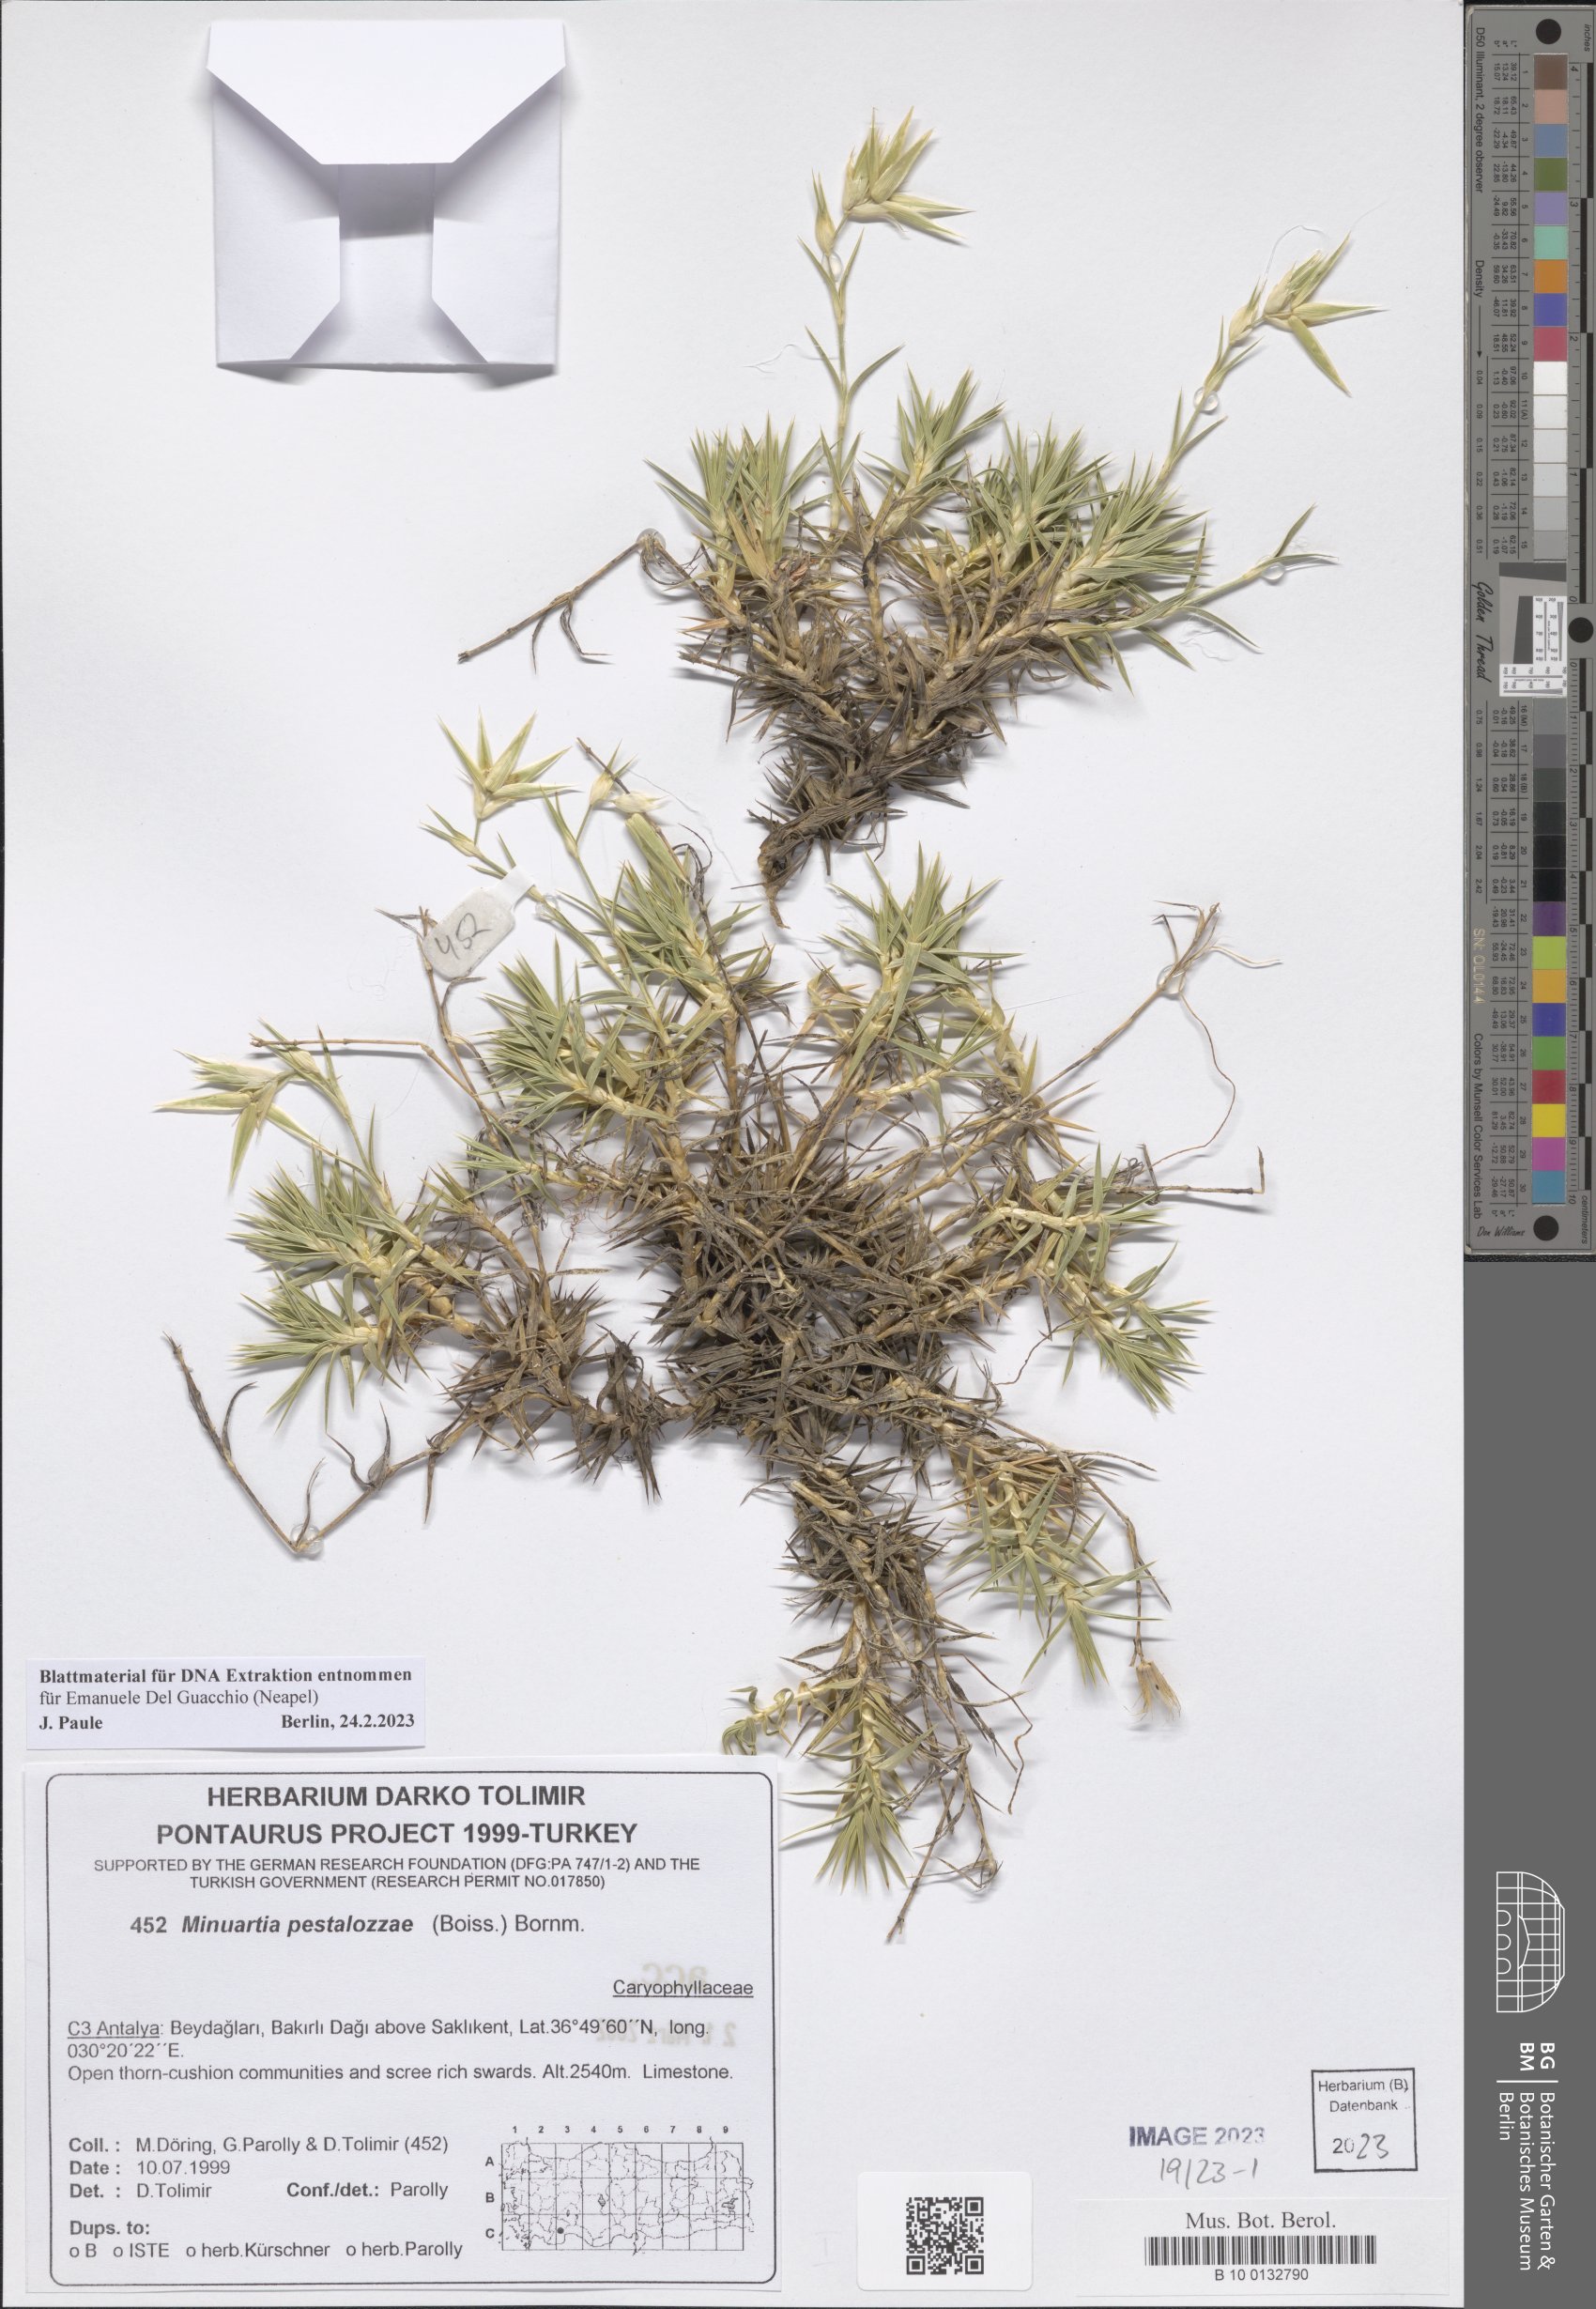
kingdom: Plantae
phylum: Tracheophyta
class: Magnoliopsida
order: Caryophyllales
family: Caryophyllaceae
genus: Minuartiella
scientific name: Minuartiella pestalozzae
